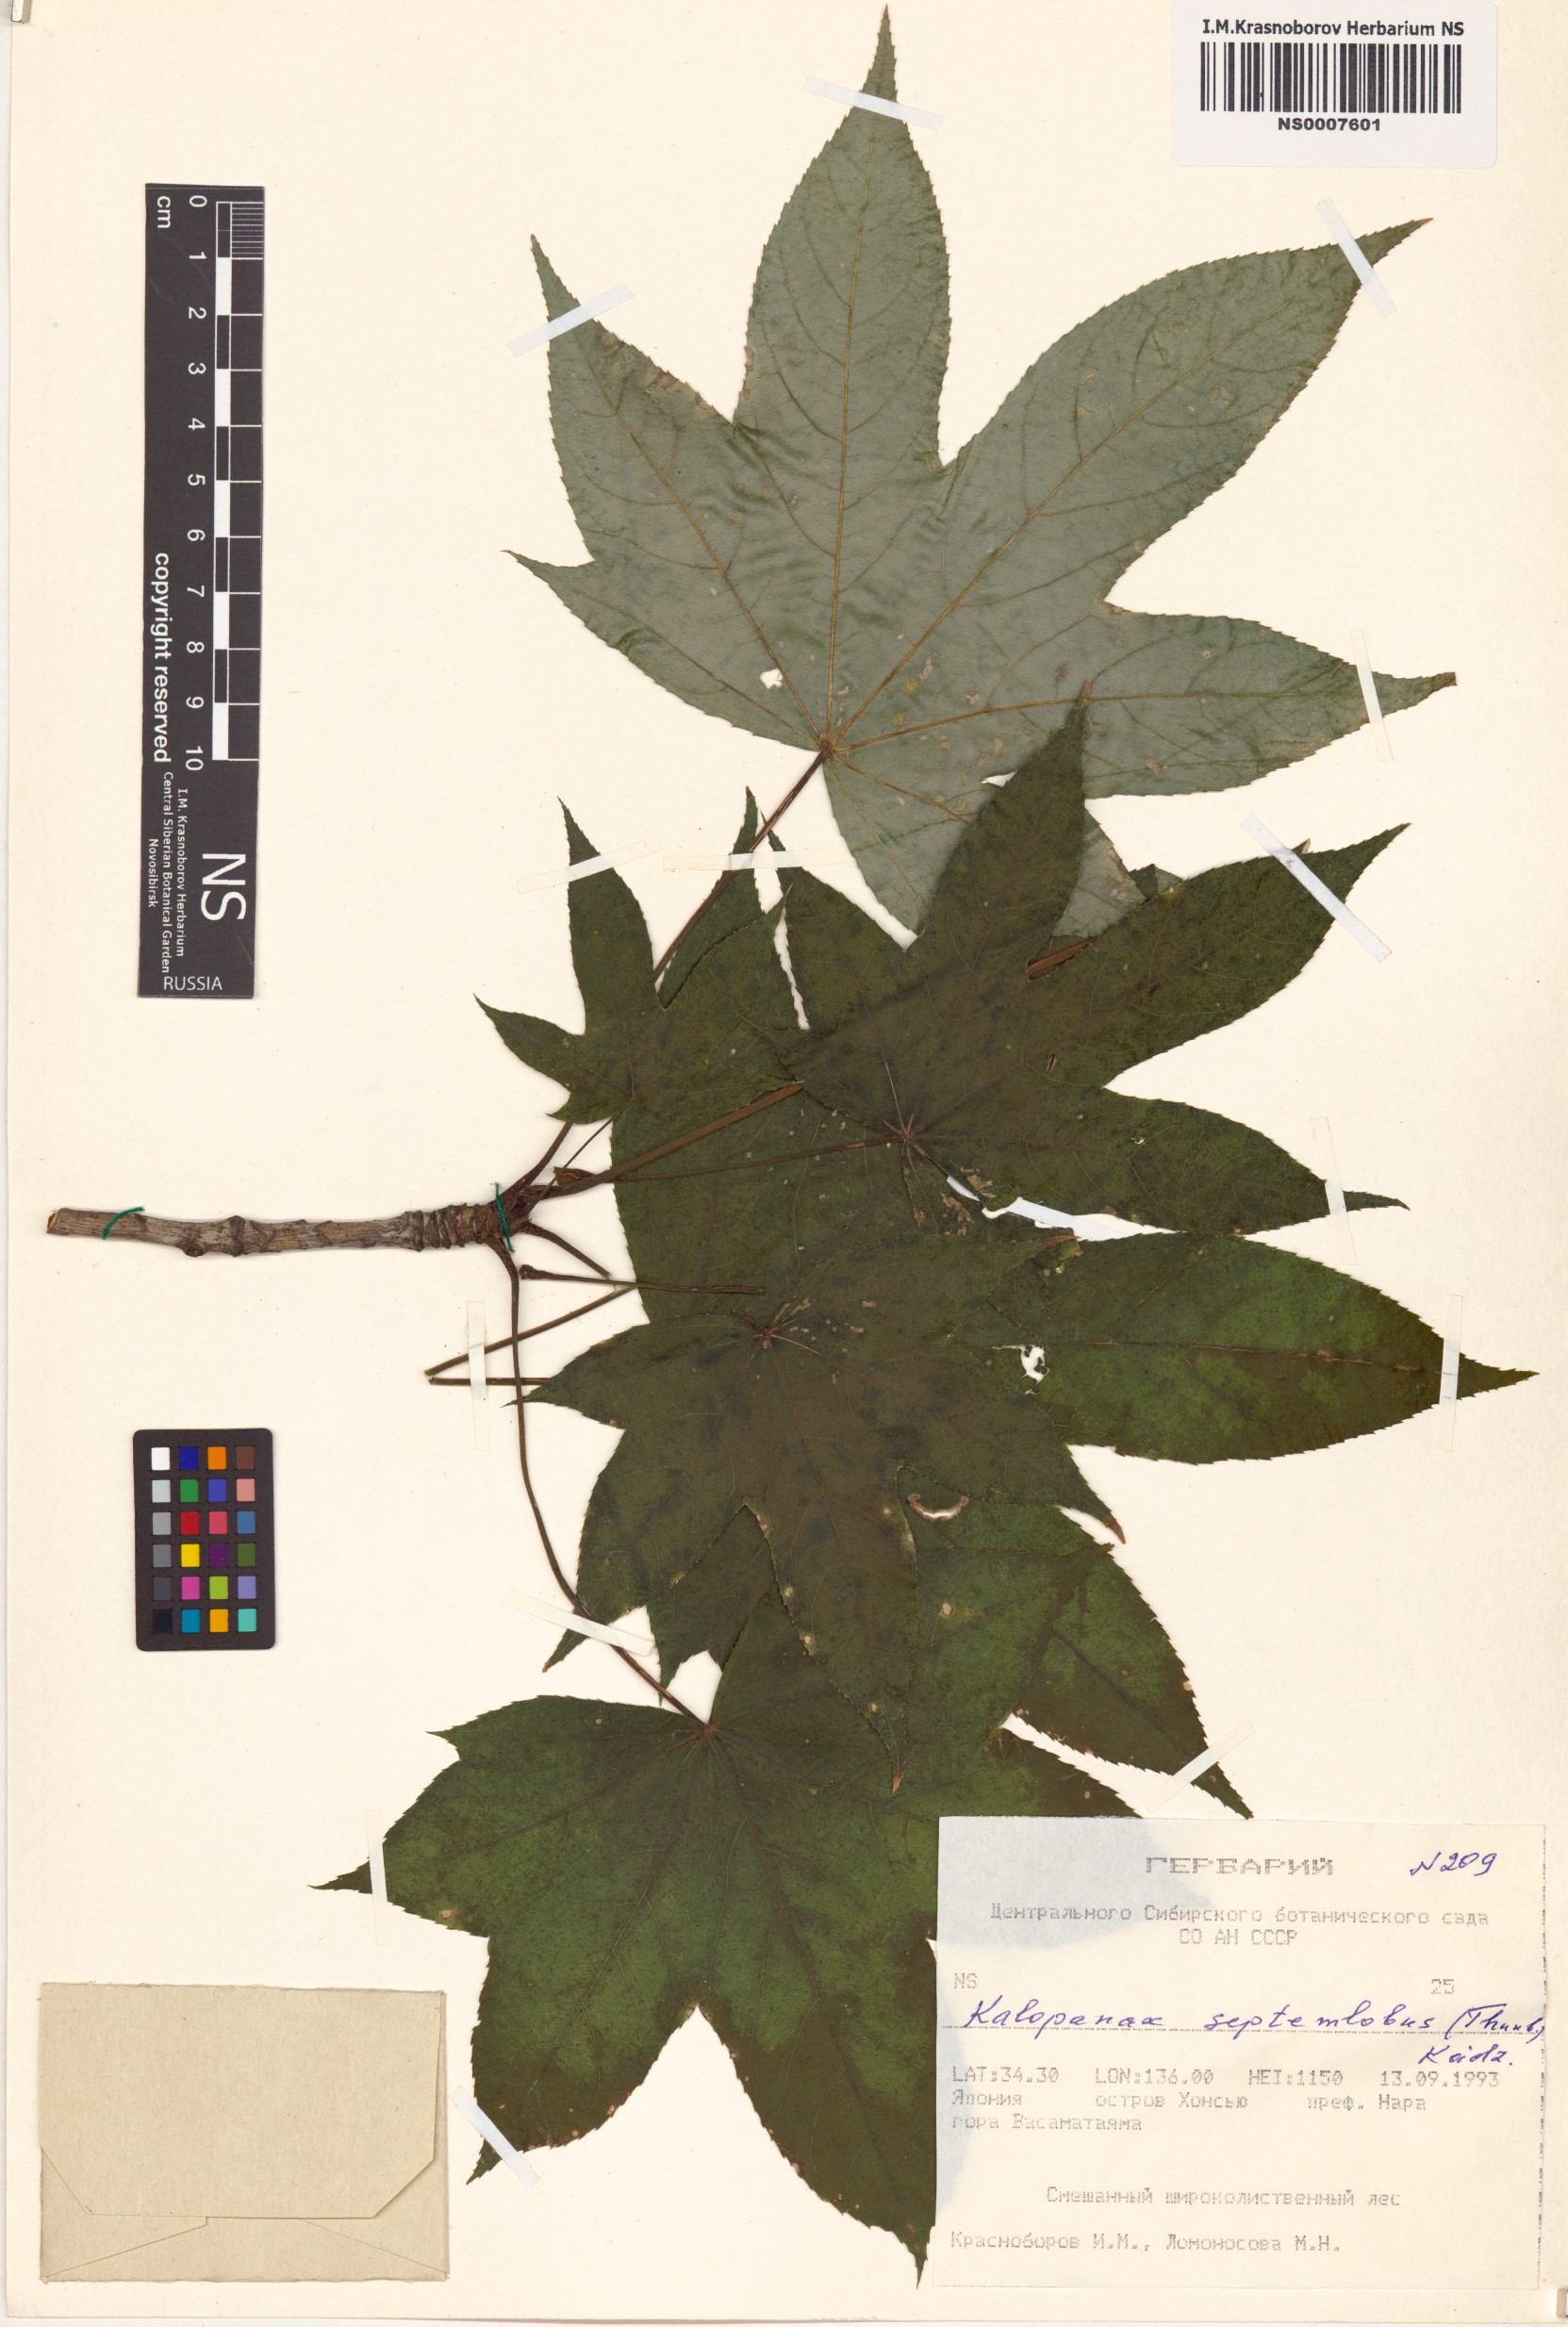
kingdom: Plantae
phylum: Tracheophyta
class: Magnoliopsida
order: Apiales
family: Araliaceae
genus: Kalopanax
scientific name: Kalopanax septemlobus
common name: Castor aralia
